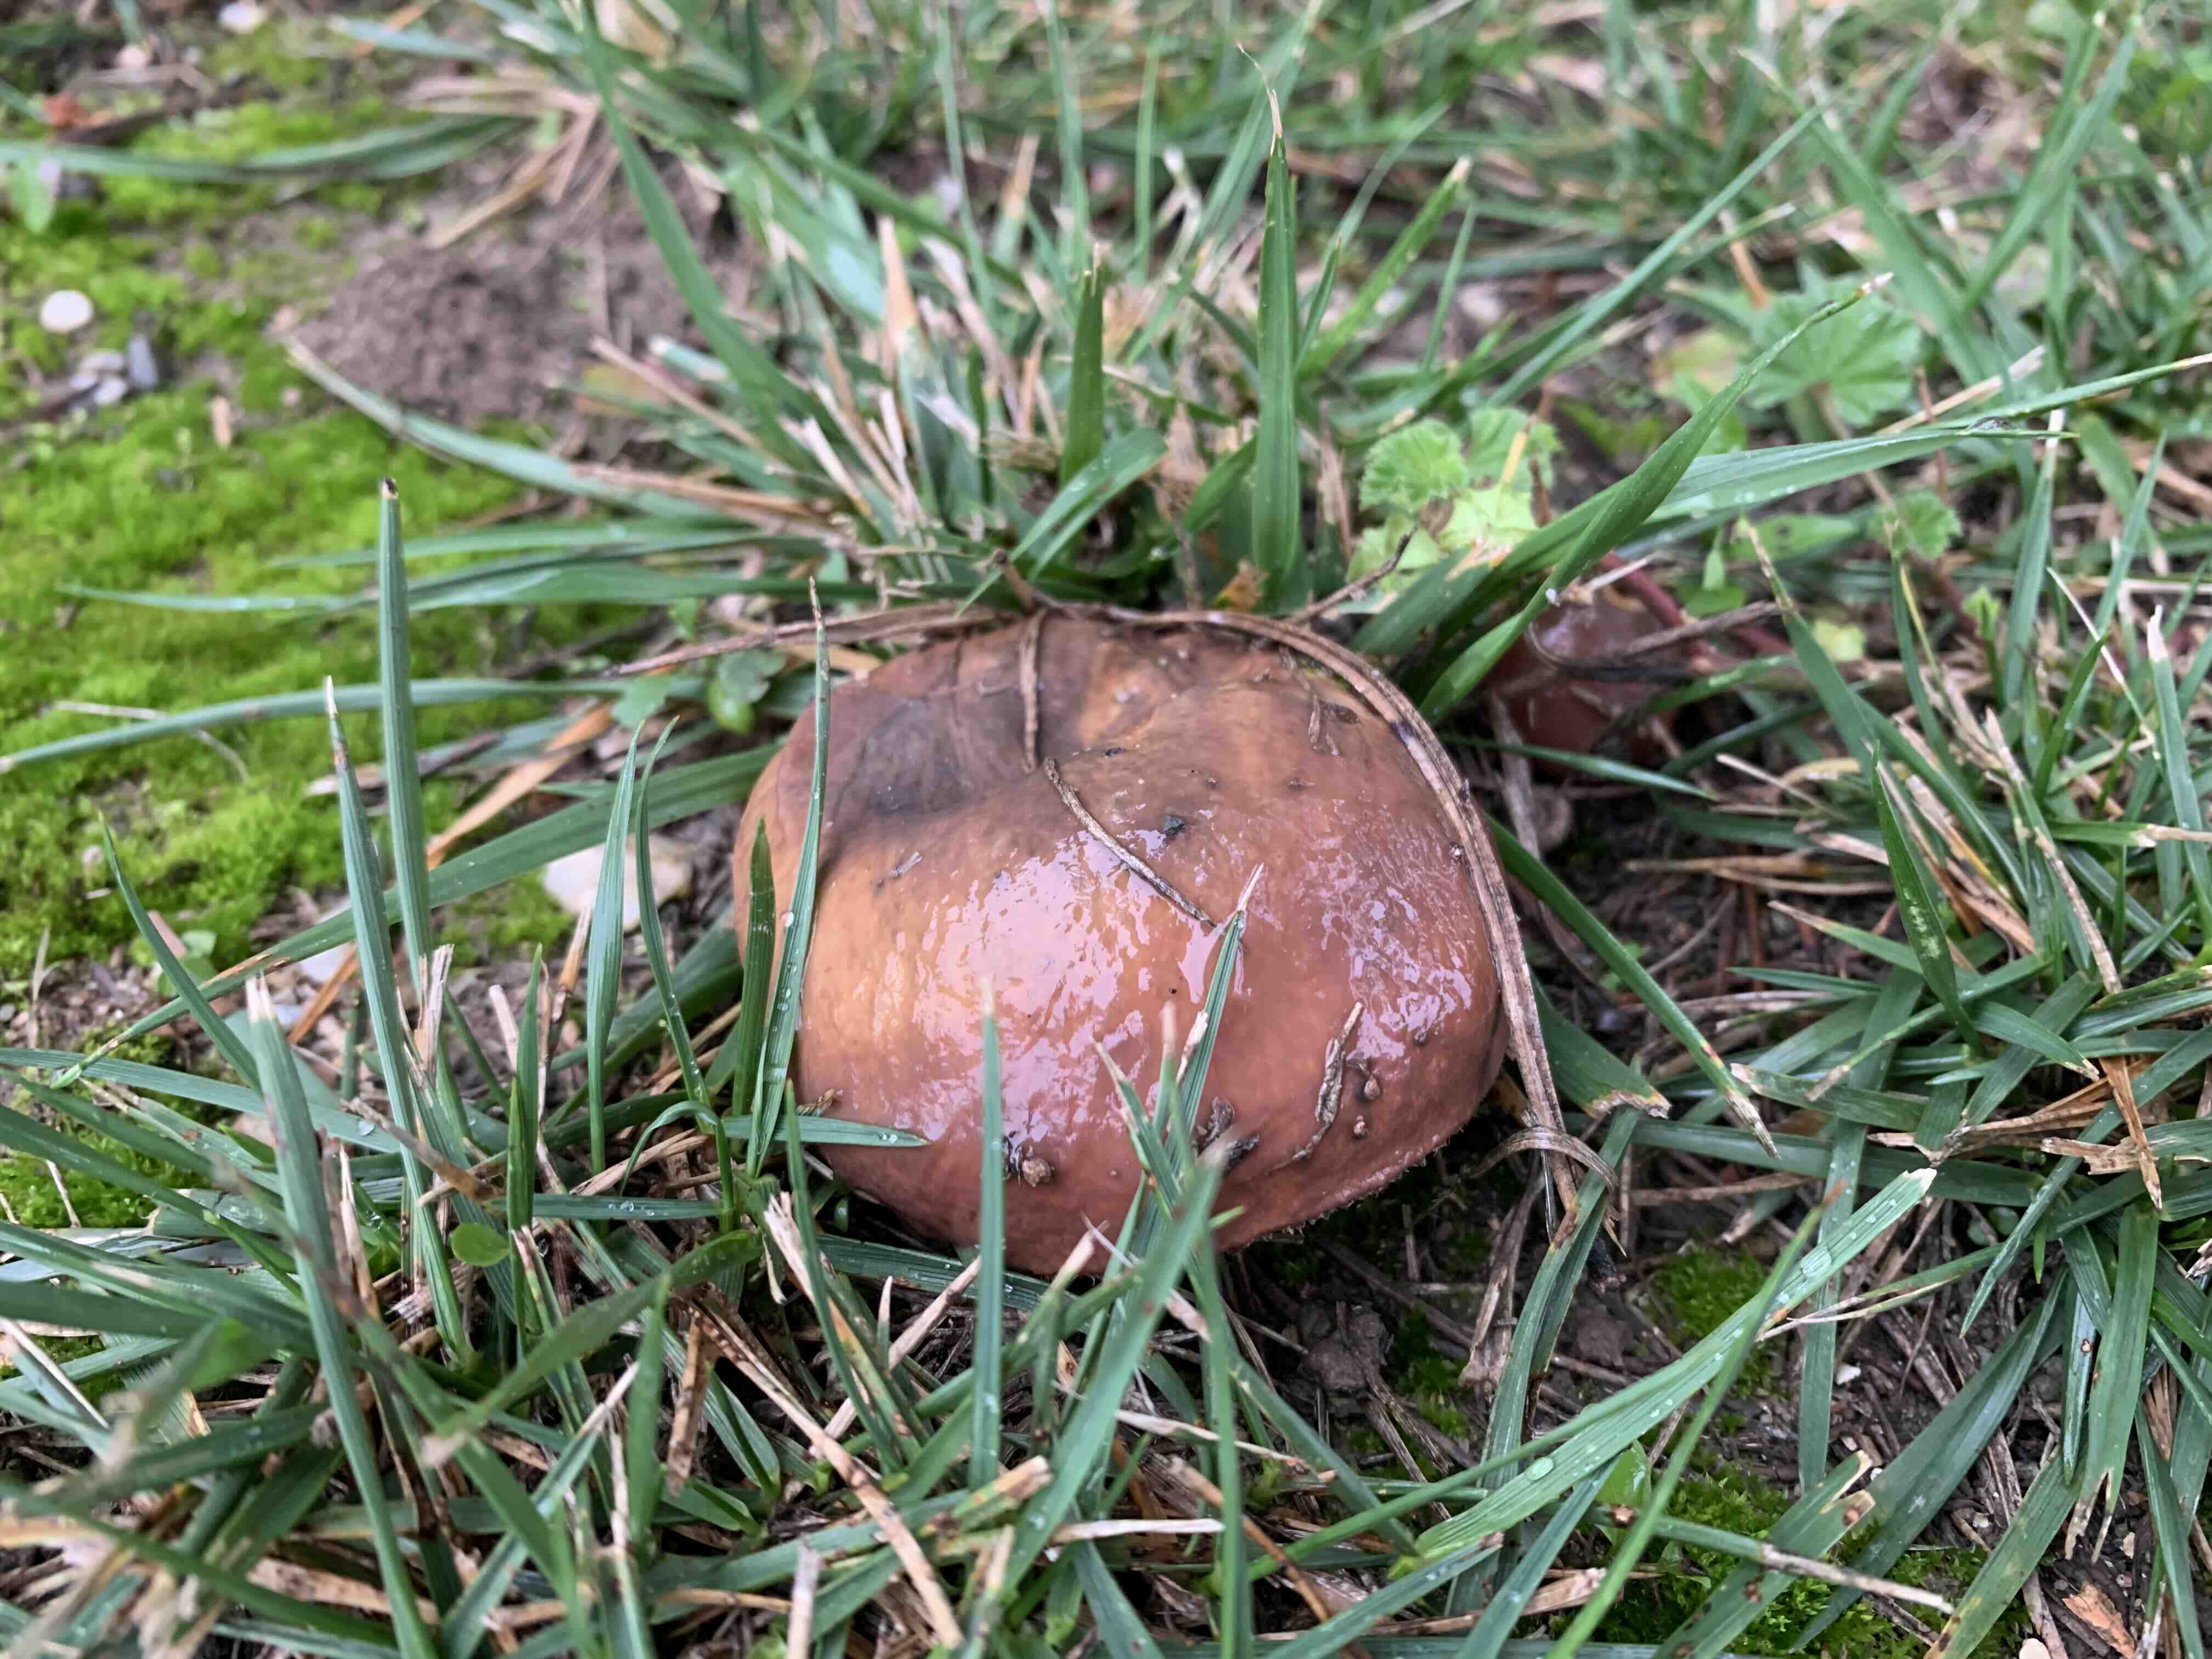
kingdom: Fungi
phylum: Basidiomycota
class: Agaricomycetes
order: Boletales
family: Suillaceae
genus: Suillus
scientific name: Suillus luteus
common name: brungul slimrørhat
